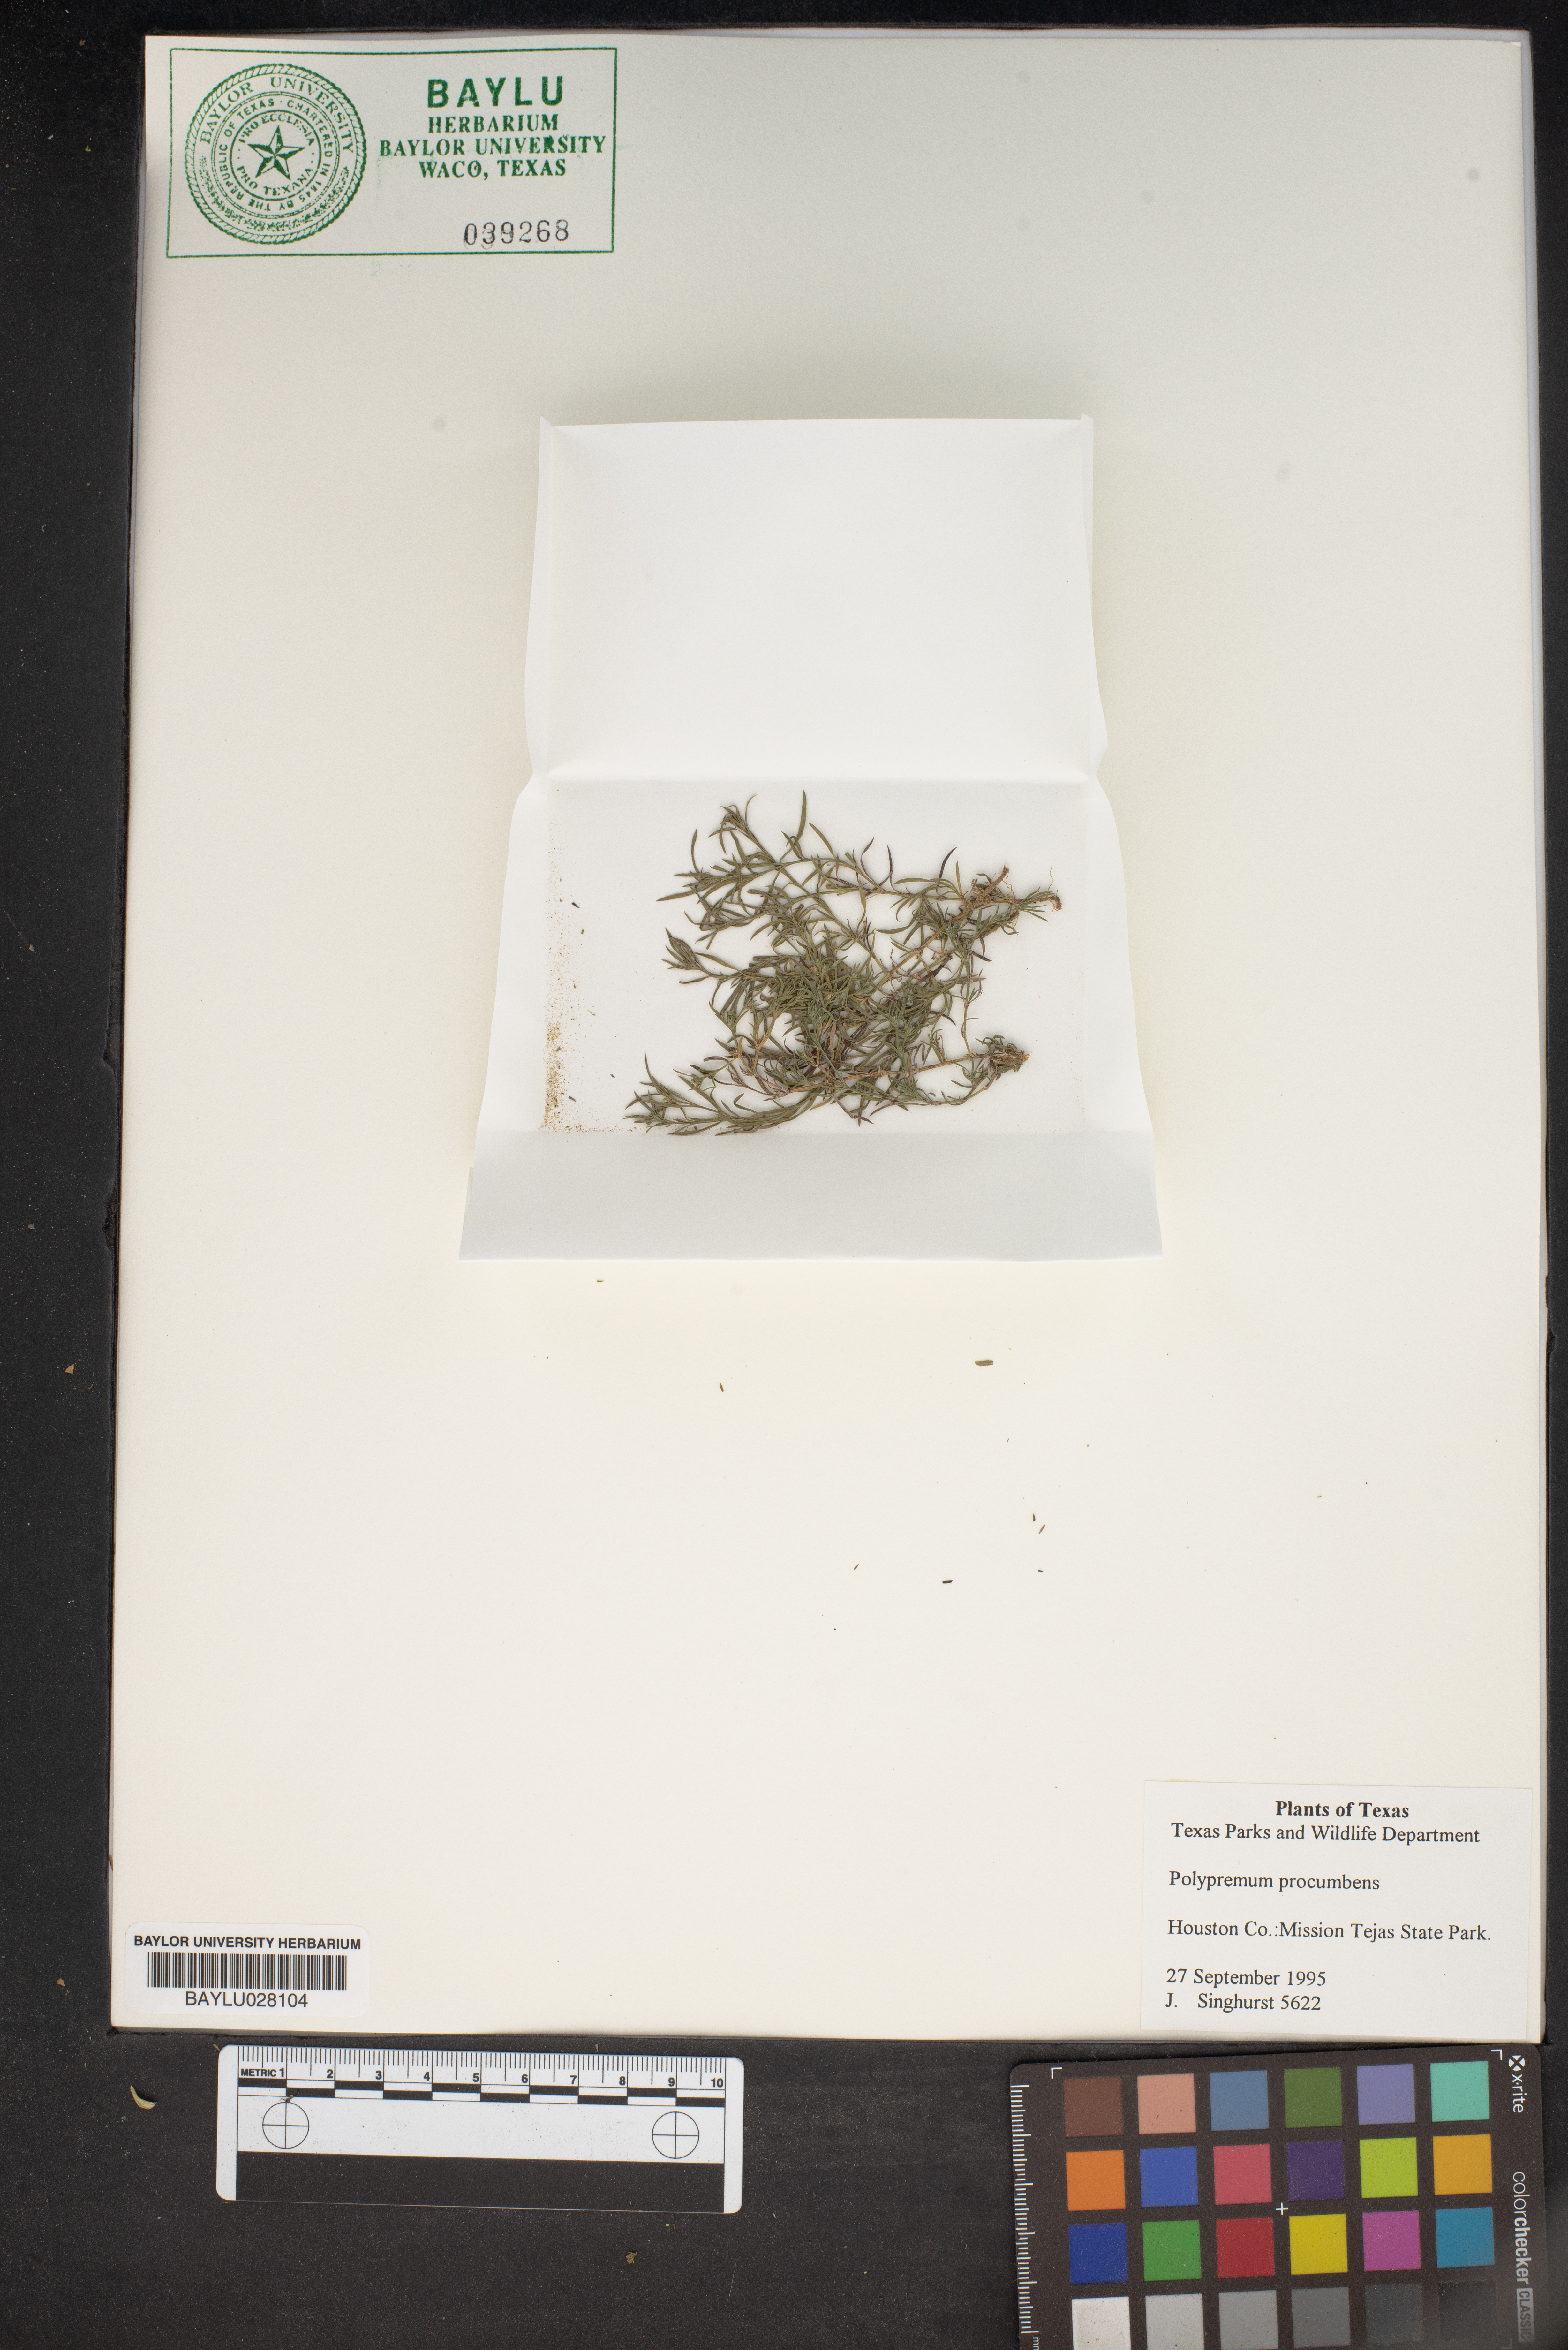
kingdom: Plantae
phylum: Tracheophyta
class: Magnoliopsida
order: Lamiales
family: Tetrachondraceae
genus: Polypremum
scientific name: Polypremum procumbens
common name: Juniper-leaf
